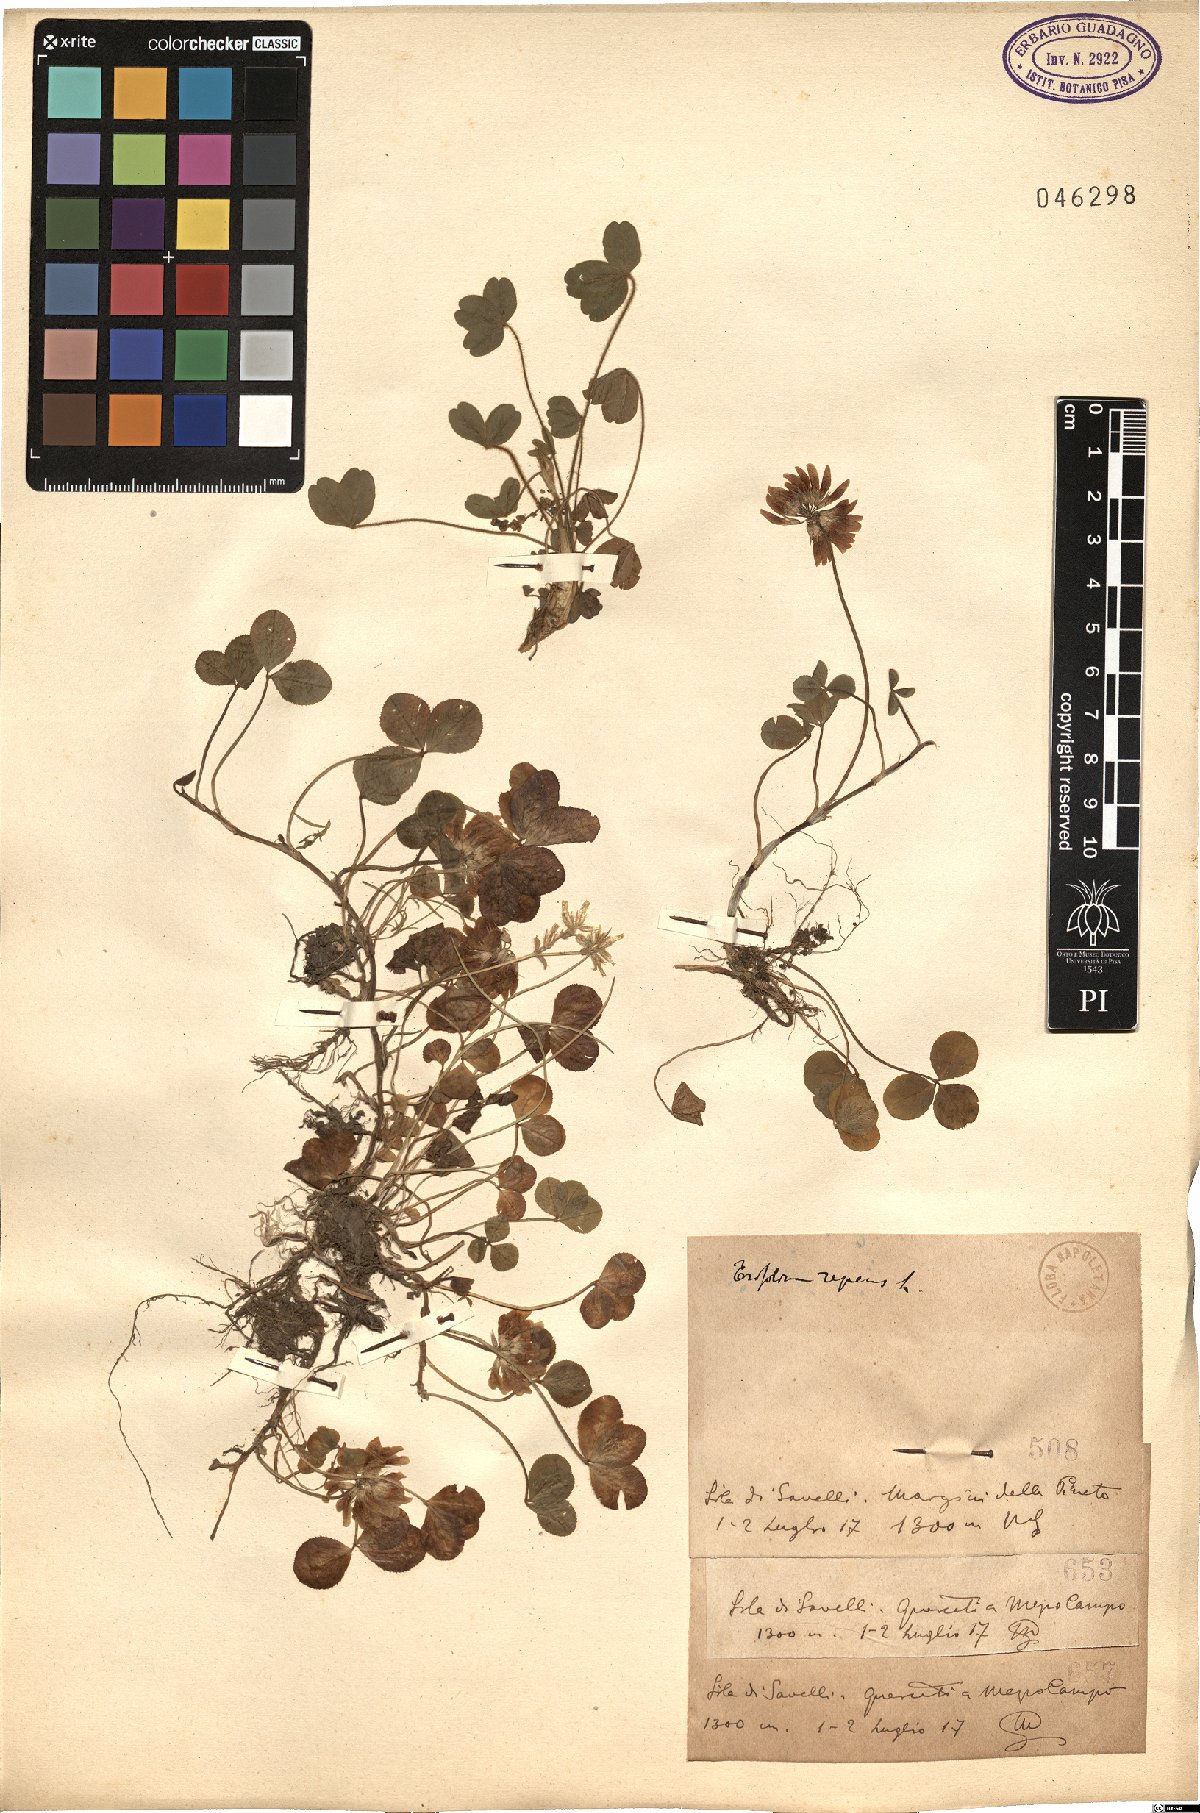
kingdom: Plantae
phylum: Tracheophyta
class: Magnoliopsida
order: Fabales
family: Fabaceae
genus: Trifolium
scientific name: Trifolium repens
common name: White clover
